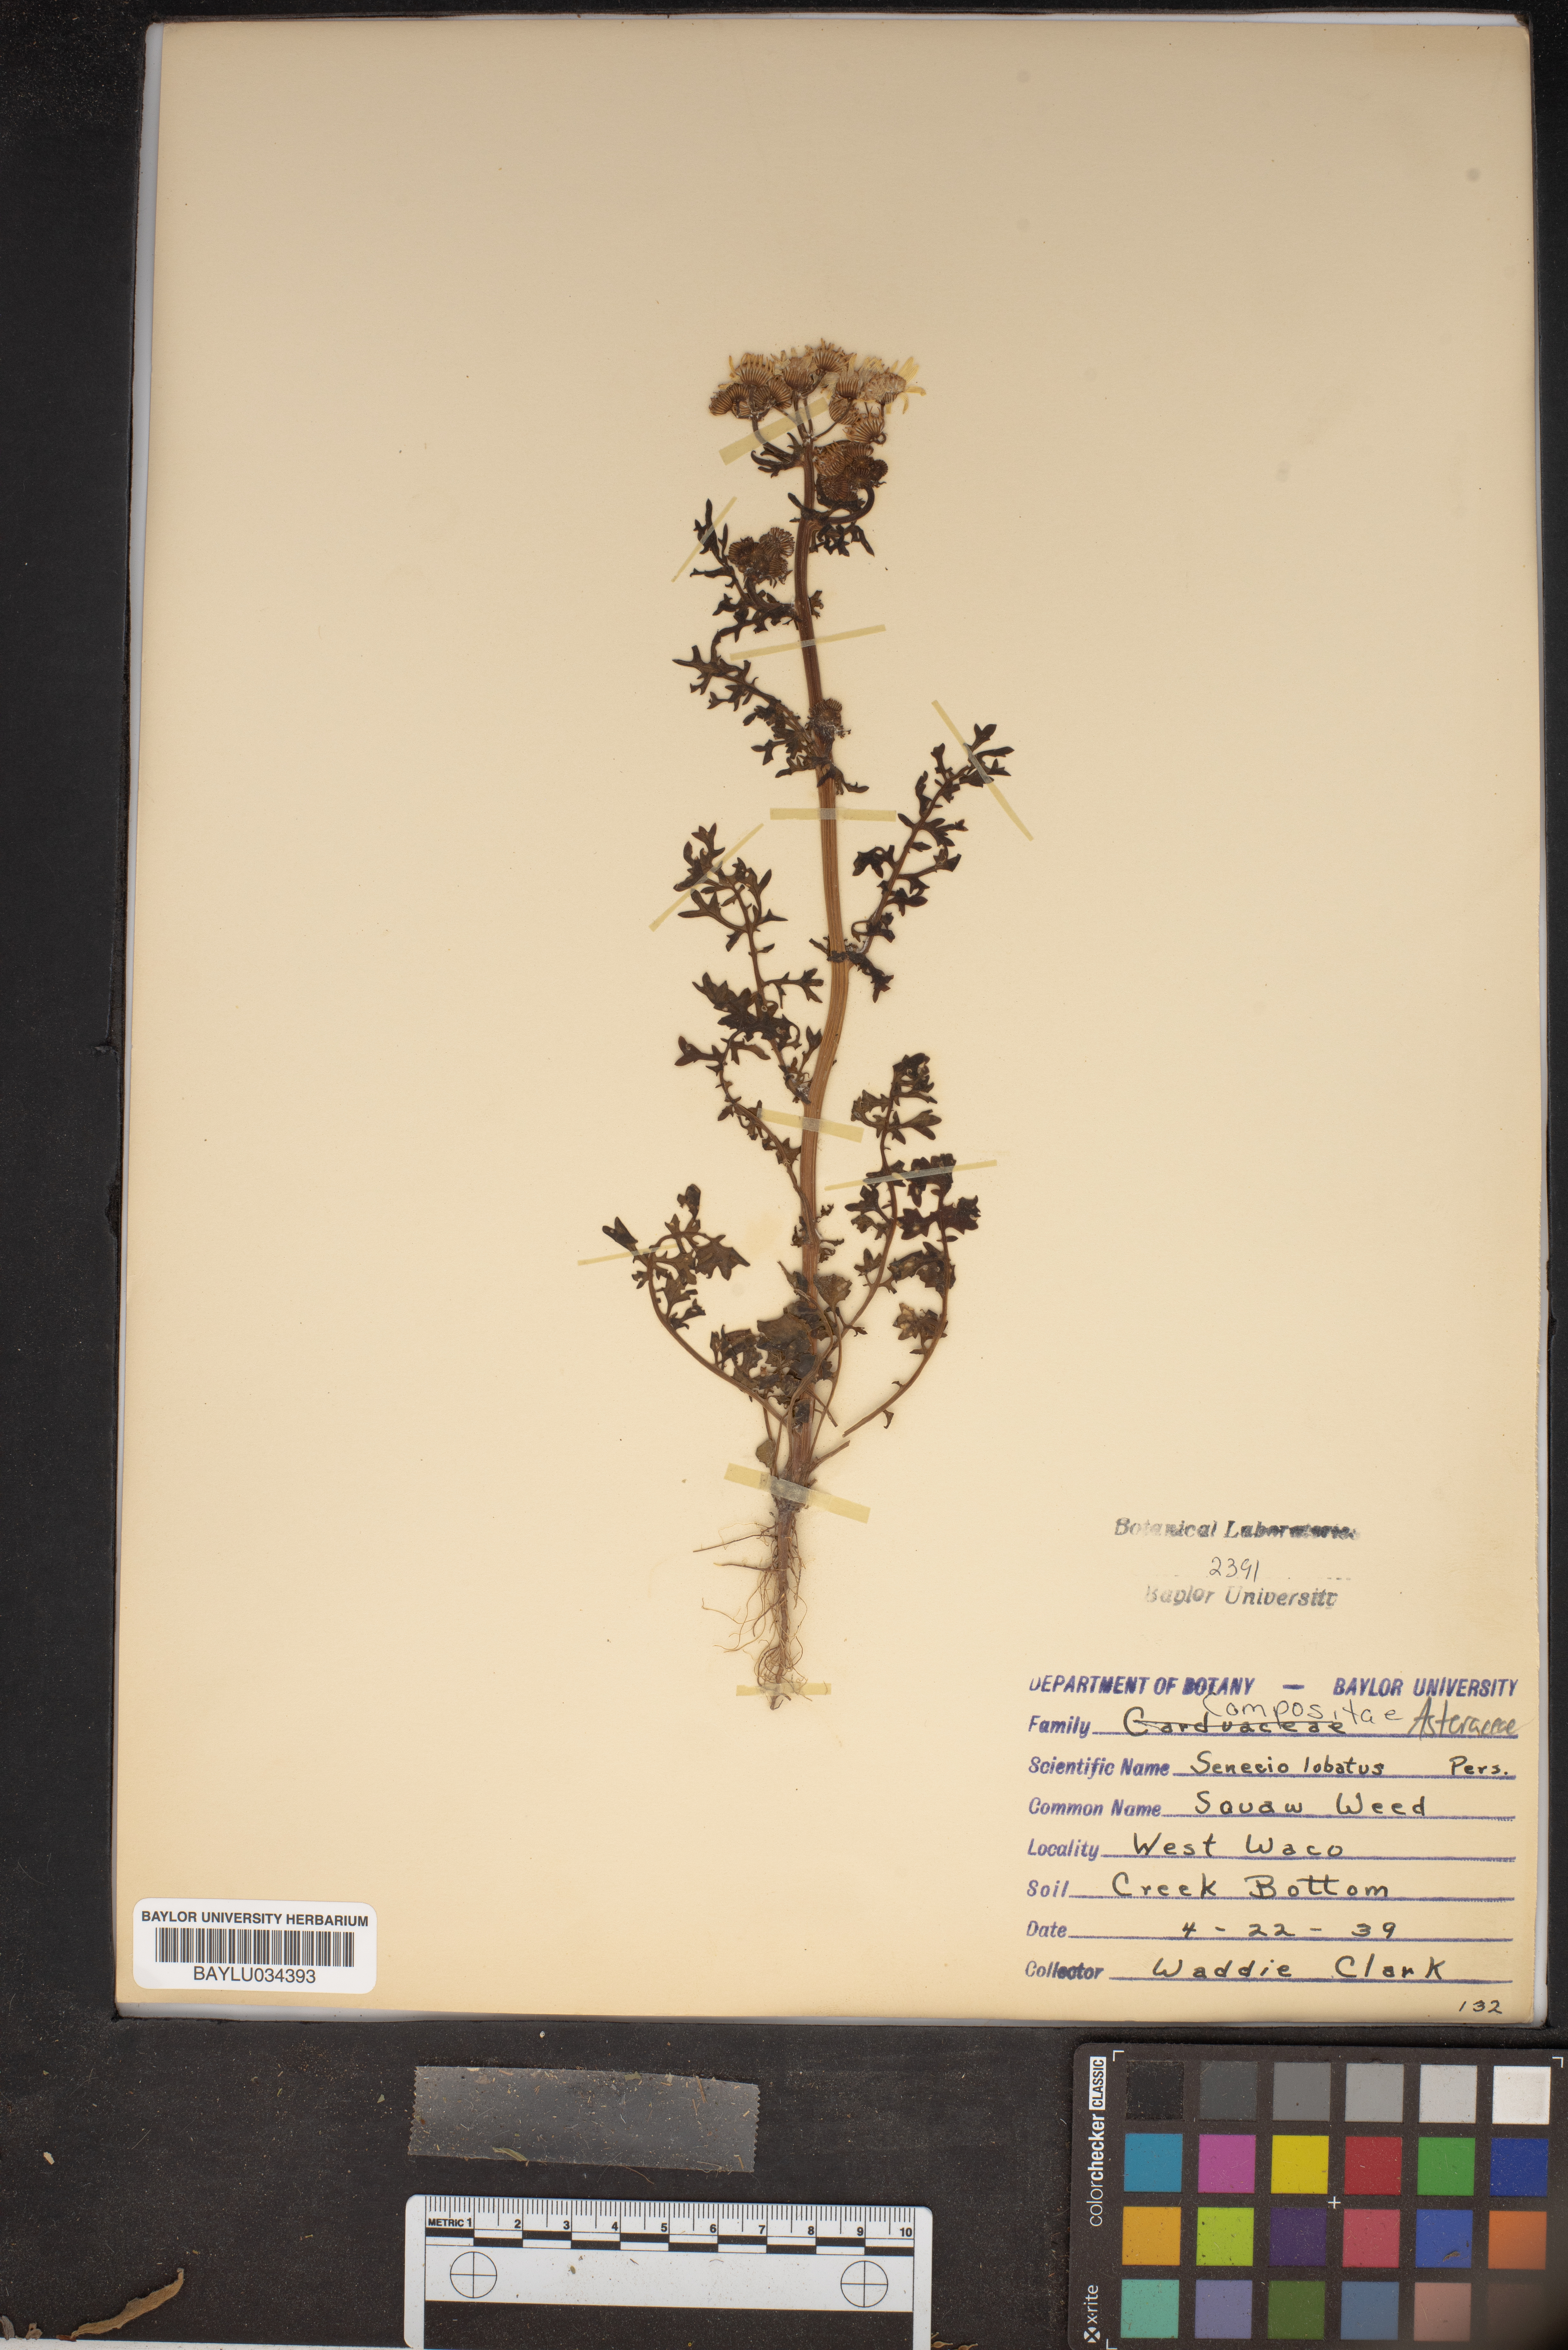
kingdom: Plantae
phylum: Tracheophyta
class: Magnoliopsida
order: Asterales
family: Asteraceae
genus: Packera
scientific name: Packera glabella
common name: Butterweed
